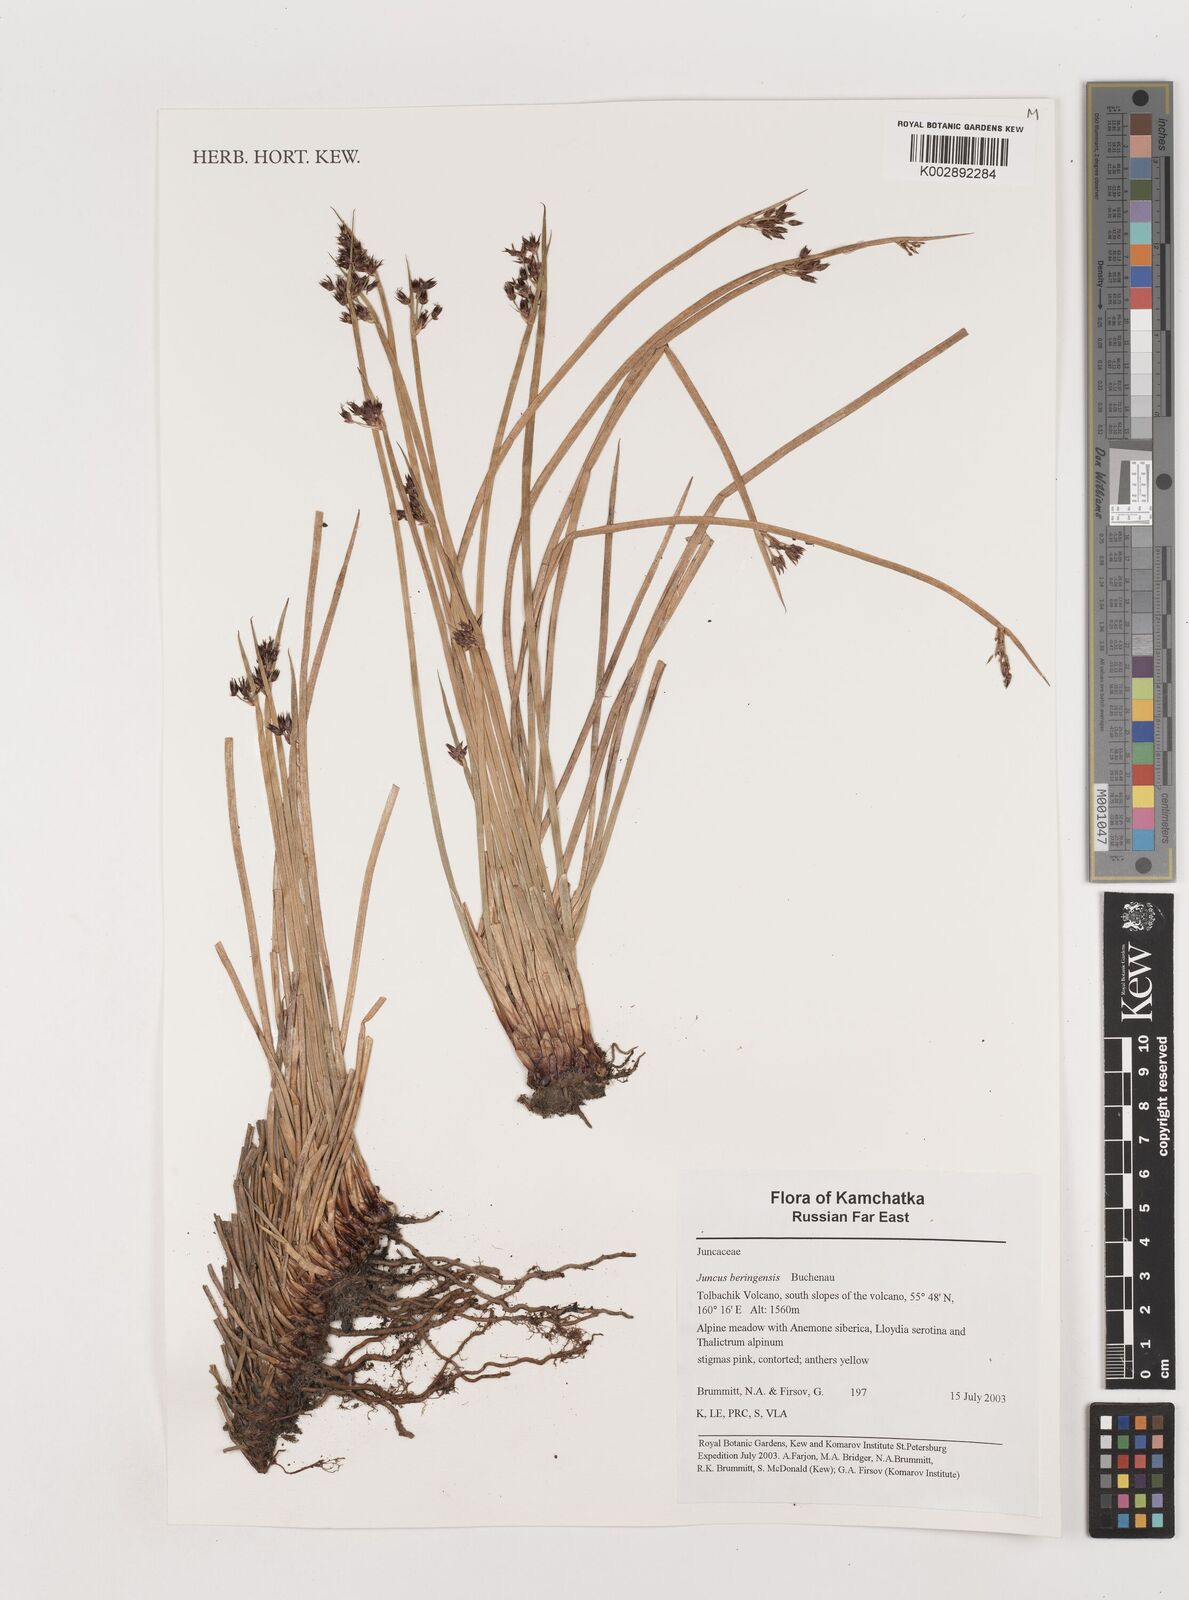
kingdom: Plantae
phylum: Tracheophyta
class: Liliopsida
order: Poales
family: Juncaceae
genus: Juncus
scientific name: Juncus beringensis
